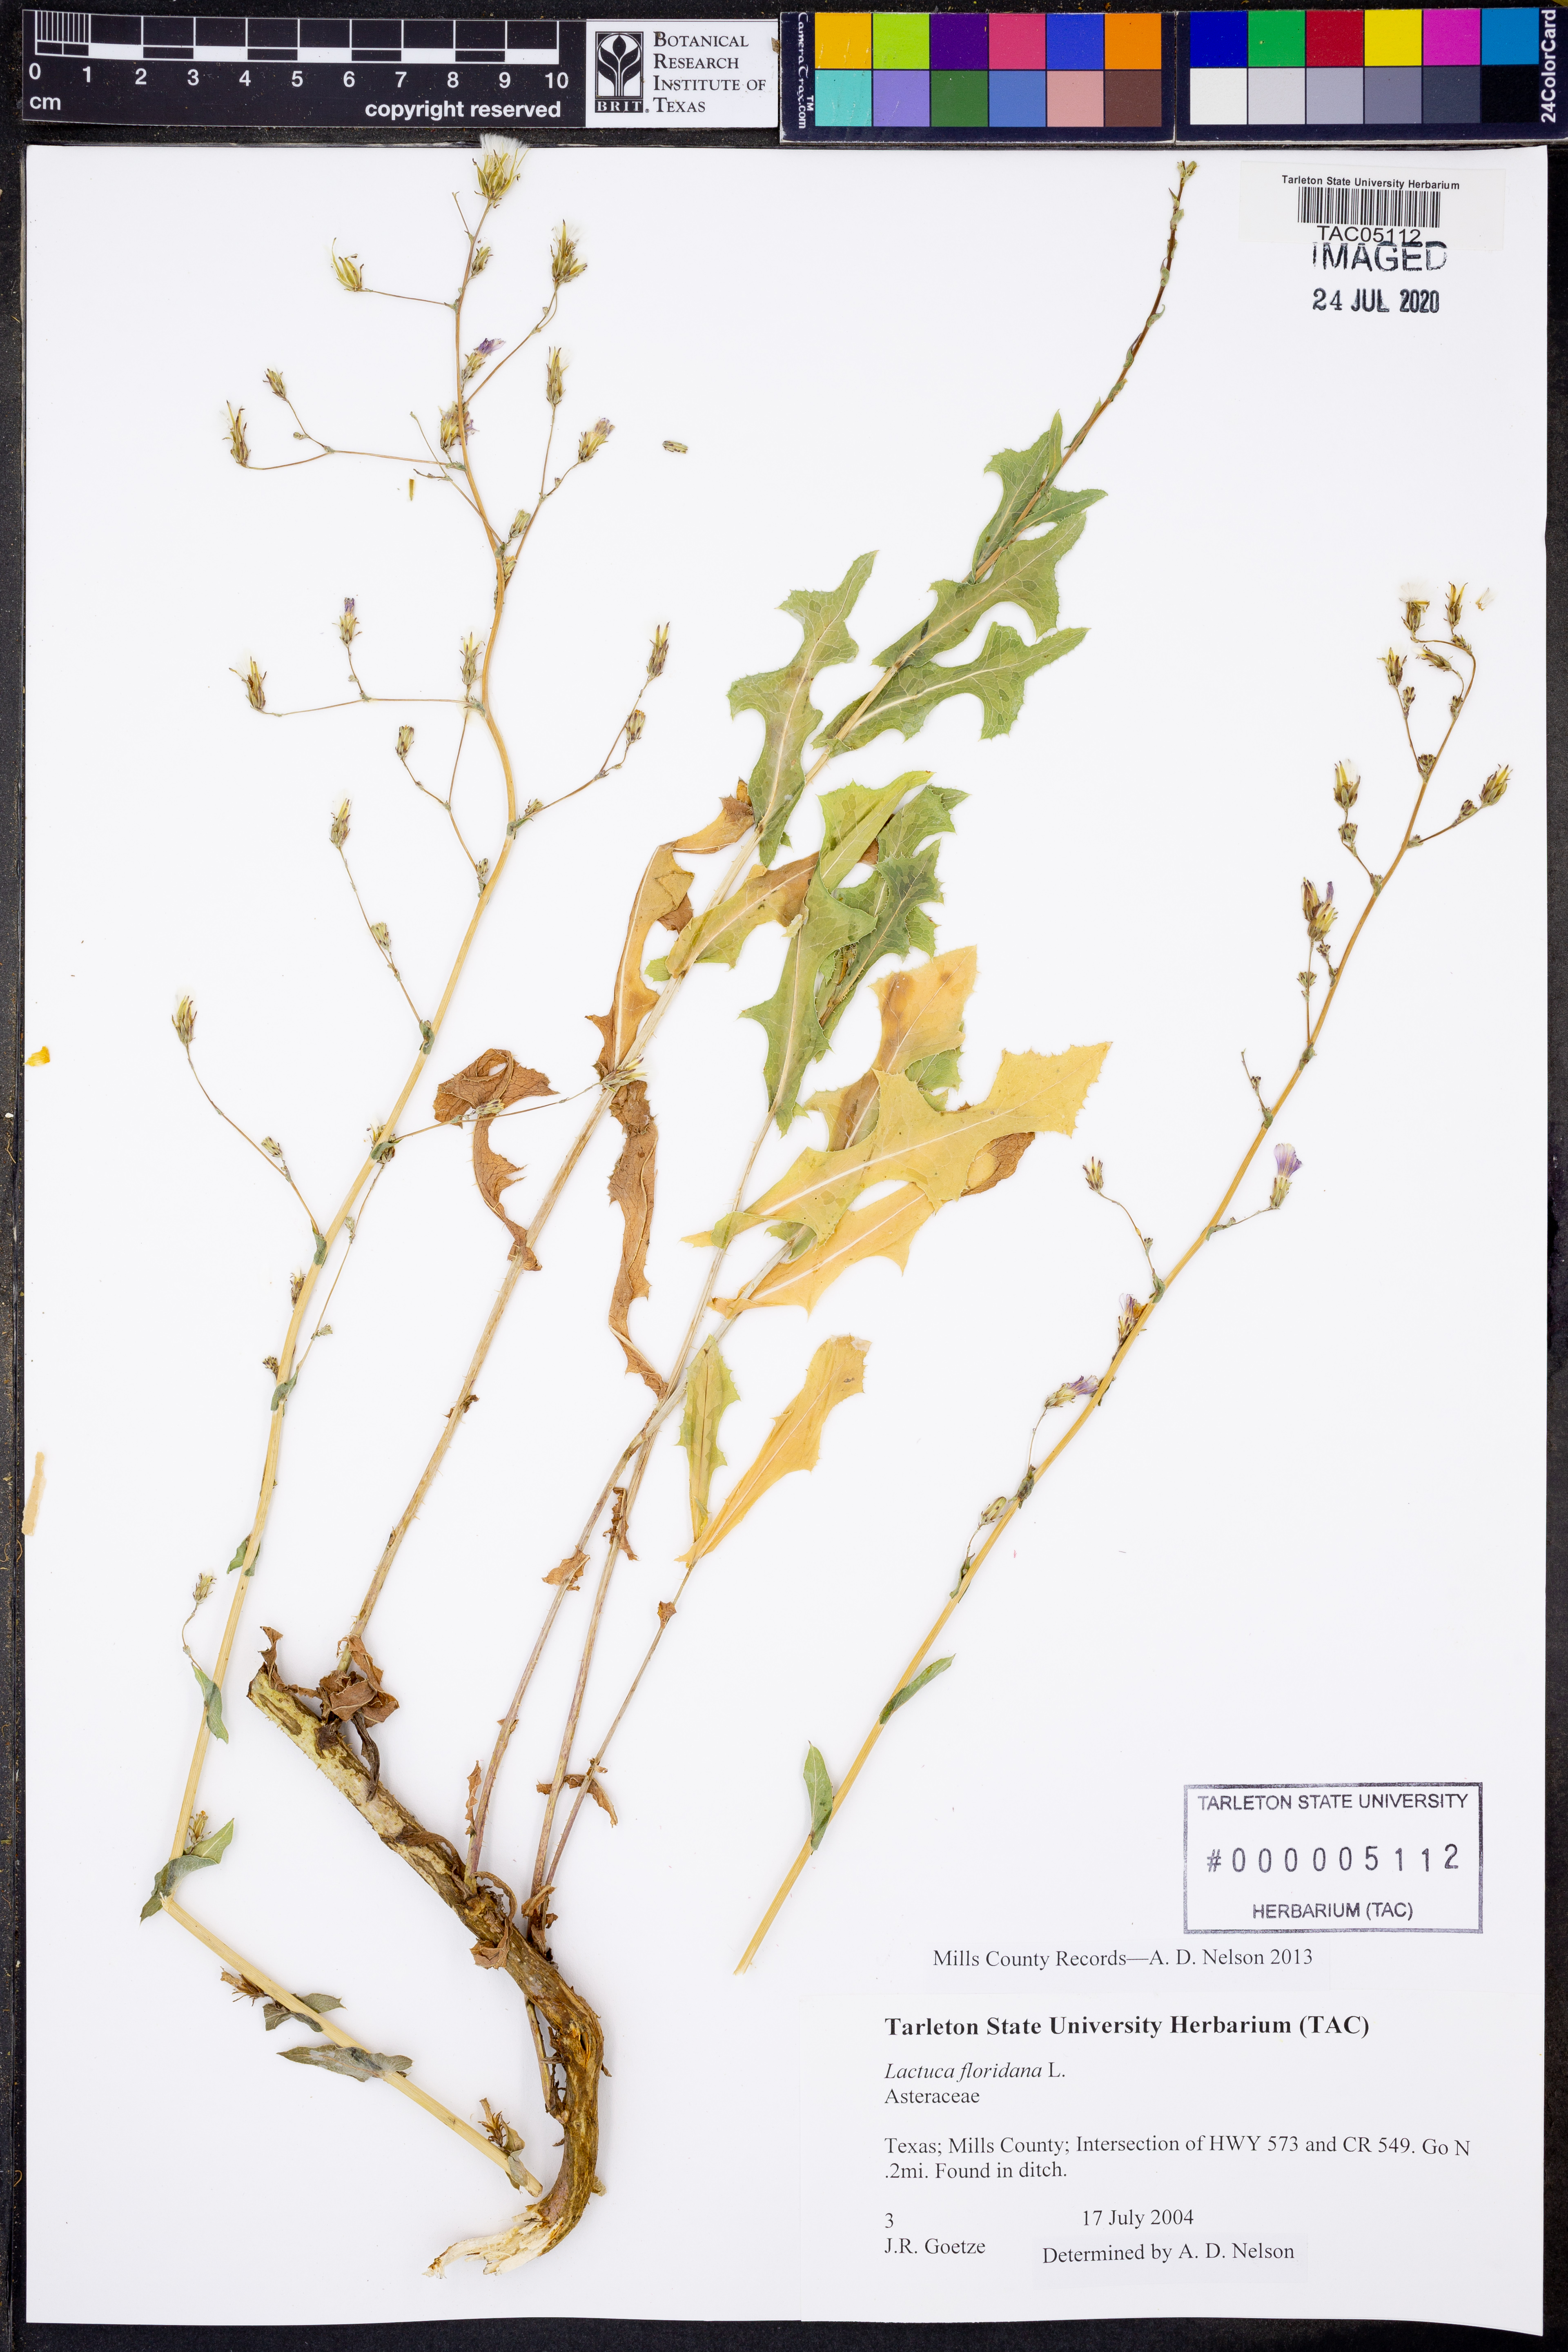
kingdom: Plantae
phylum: Tracheophyta
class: Magnoliopsida
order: Asterales
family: Asteraceae
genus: Lactuca
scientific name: Lactuca floridana
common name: Woodland lettuce
